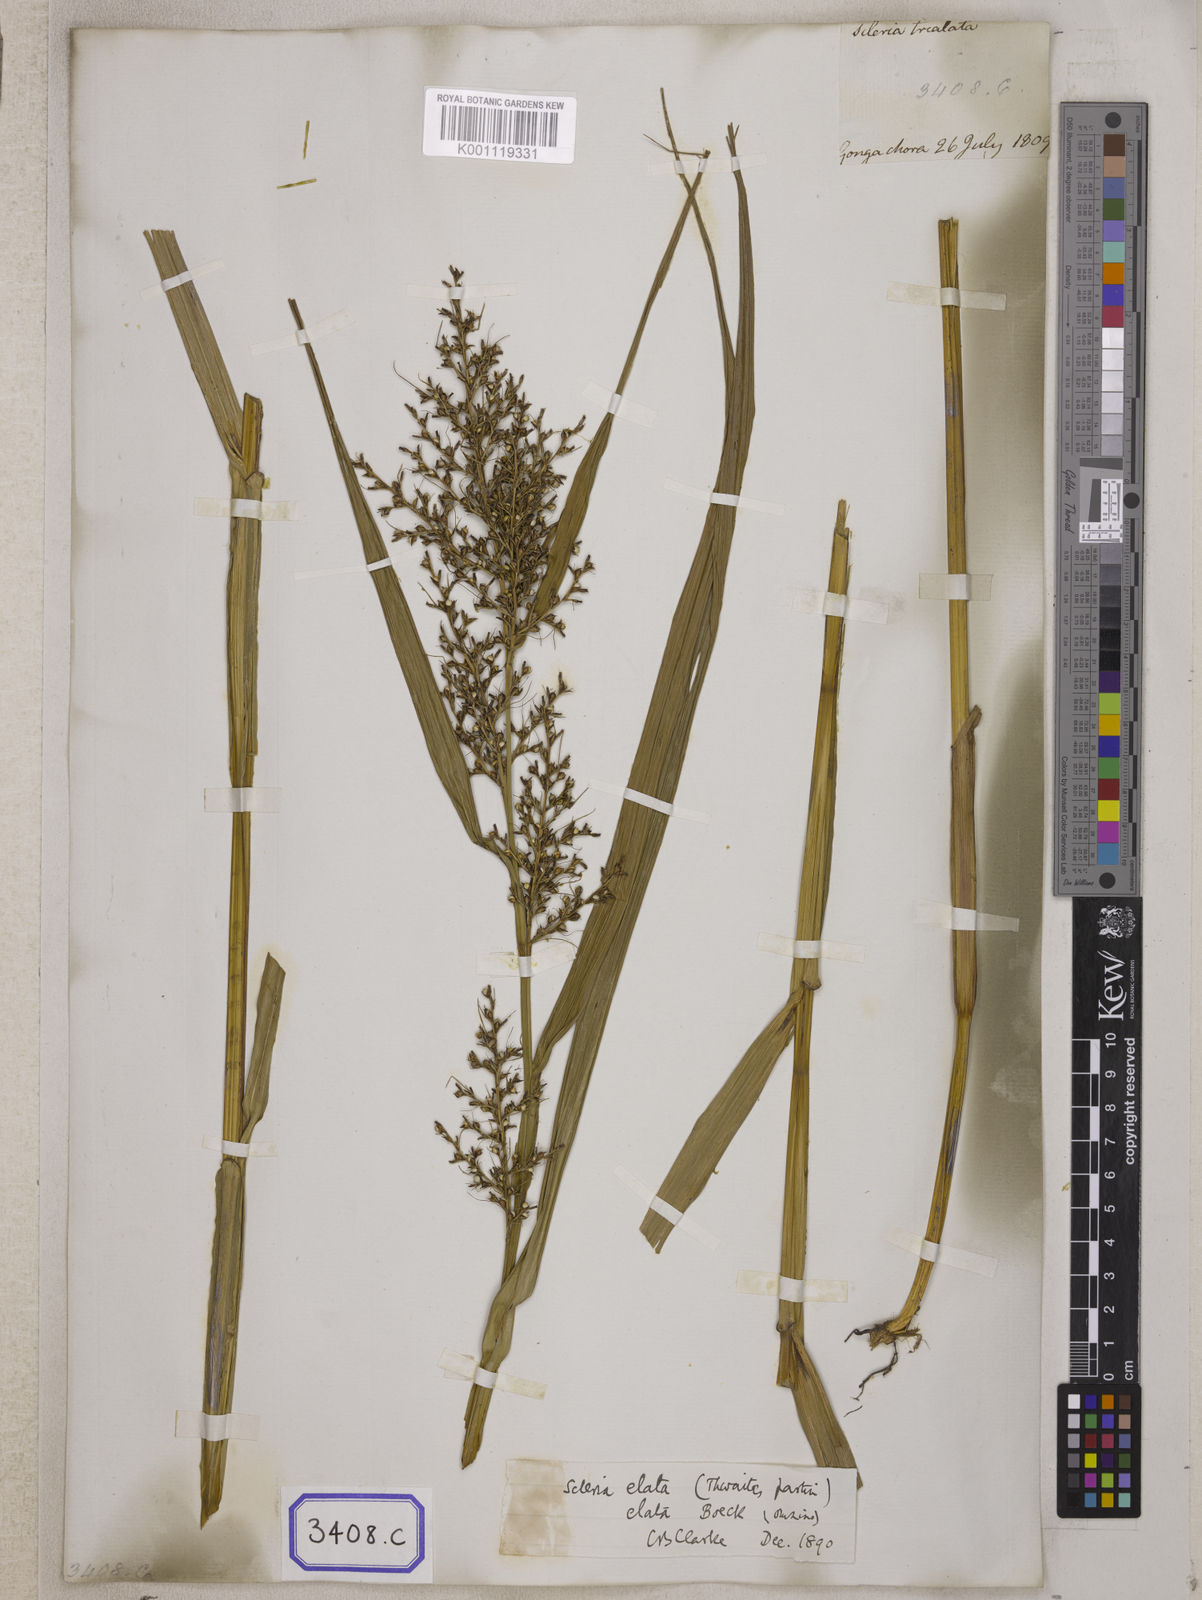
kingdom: Plantae
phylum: Tracheophyta
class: Liliopsida
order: Poales
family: Cyperaceae
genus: Scleria
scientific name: Scleria
